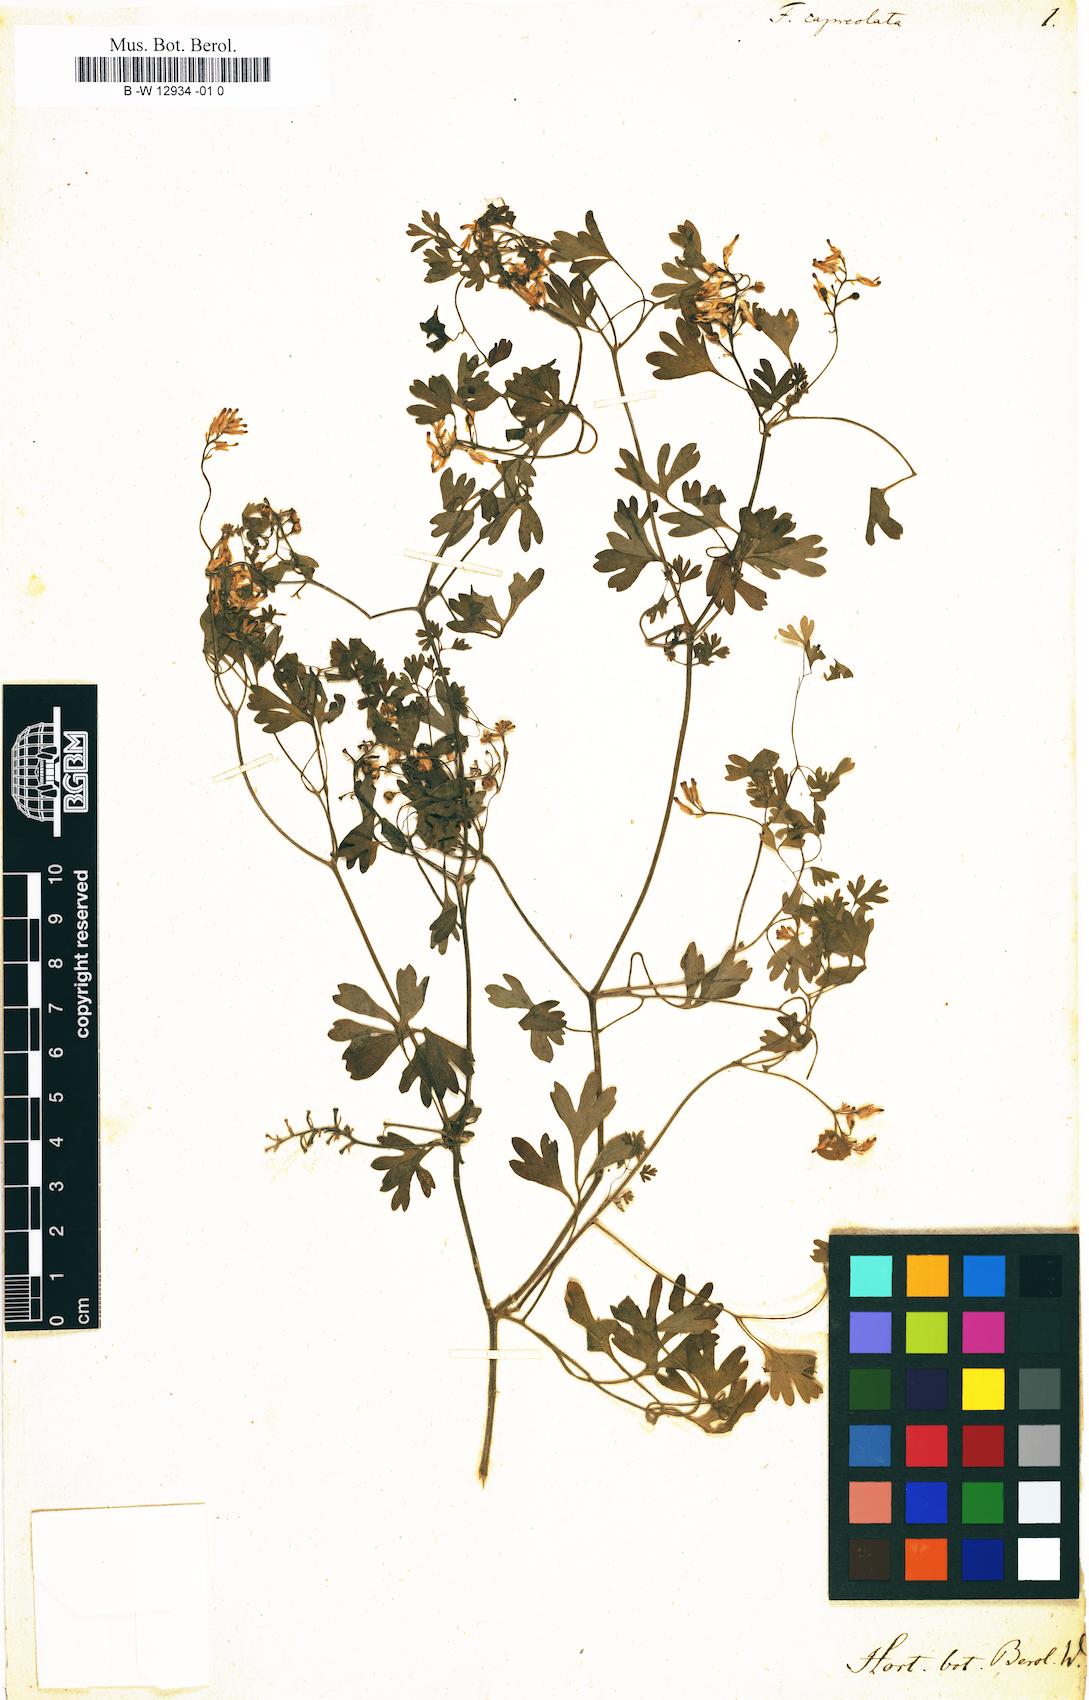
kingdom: Plantae
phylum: Tracheophyta
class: Magnoliopsida
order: Ranunculales
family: Papaveraceae
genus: Fumaria
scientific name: Fumaria capreolata
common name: White ramping-fumitory
